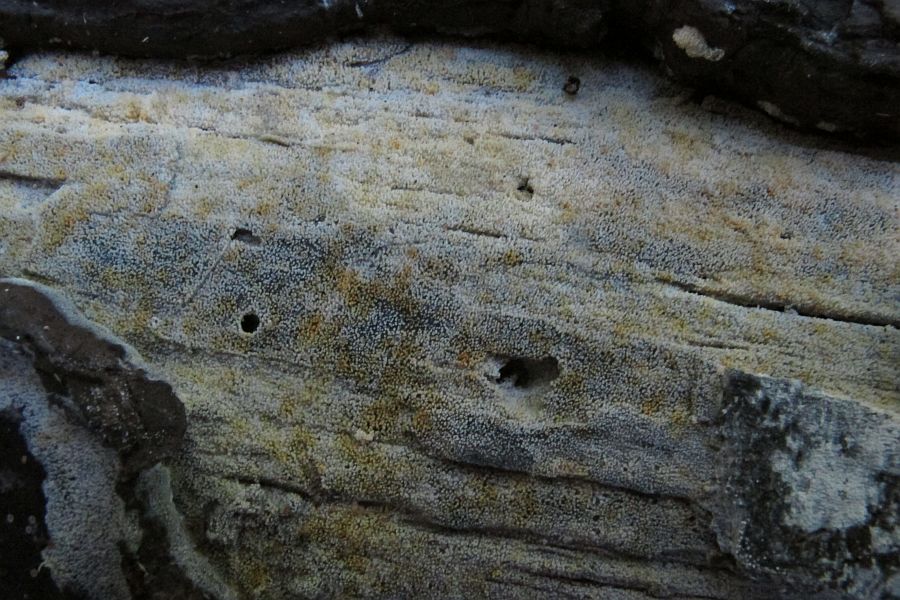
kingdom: Fungi
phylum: Basidiomycota
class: Agaricomycetes
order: Polyporales
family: Meruliaceae
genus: Scopuloides
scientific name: Scopuloides rimosa
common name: dughinde
